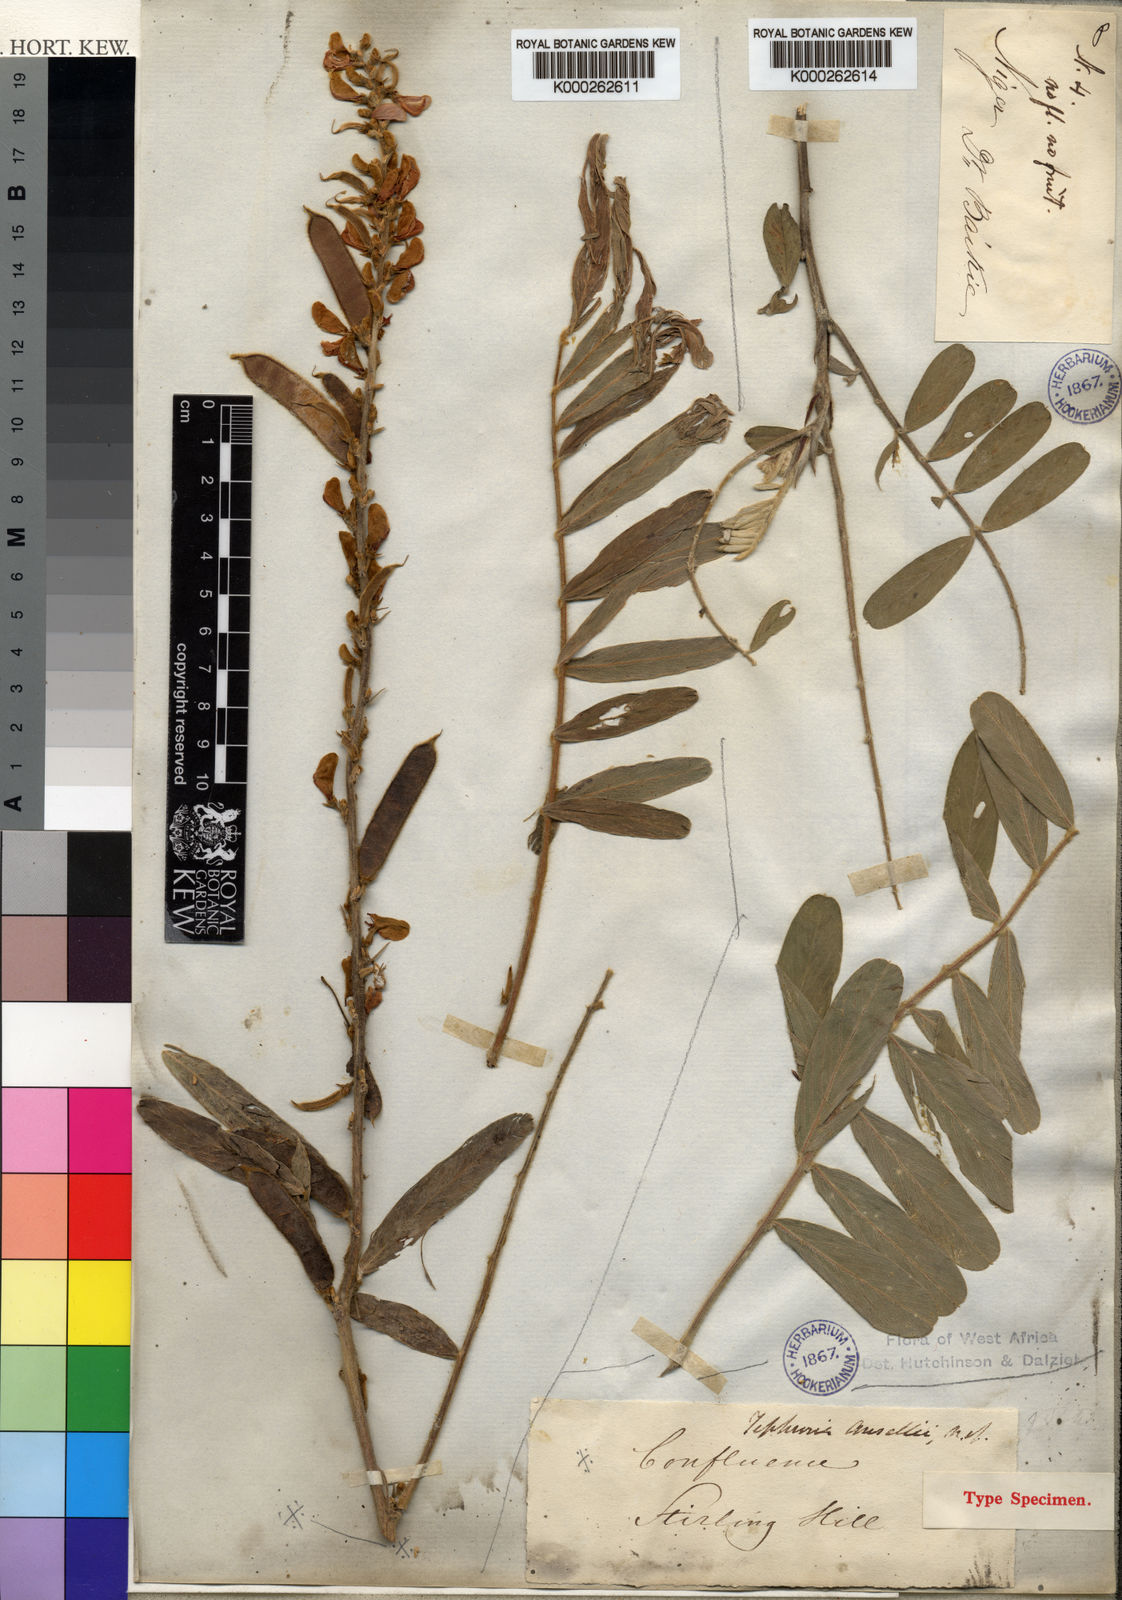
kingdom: Plantae
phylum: Tracheophyta
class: Magnoliopsida
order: Fabales
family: Fabaceae
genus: Tephrosia
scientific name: Tephrosia platycarpa
